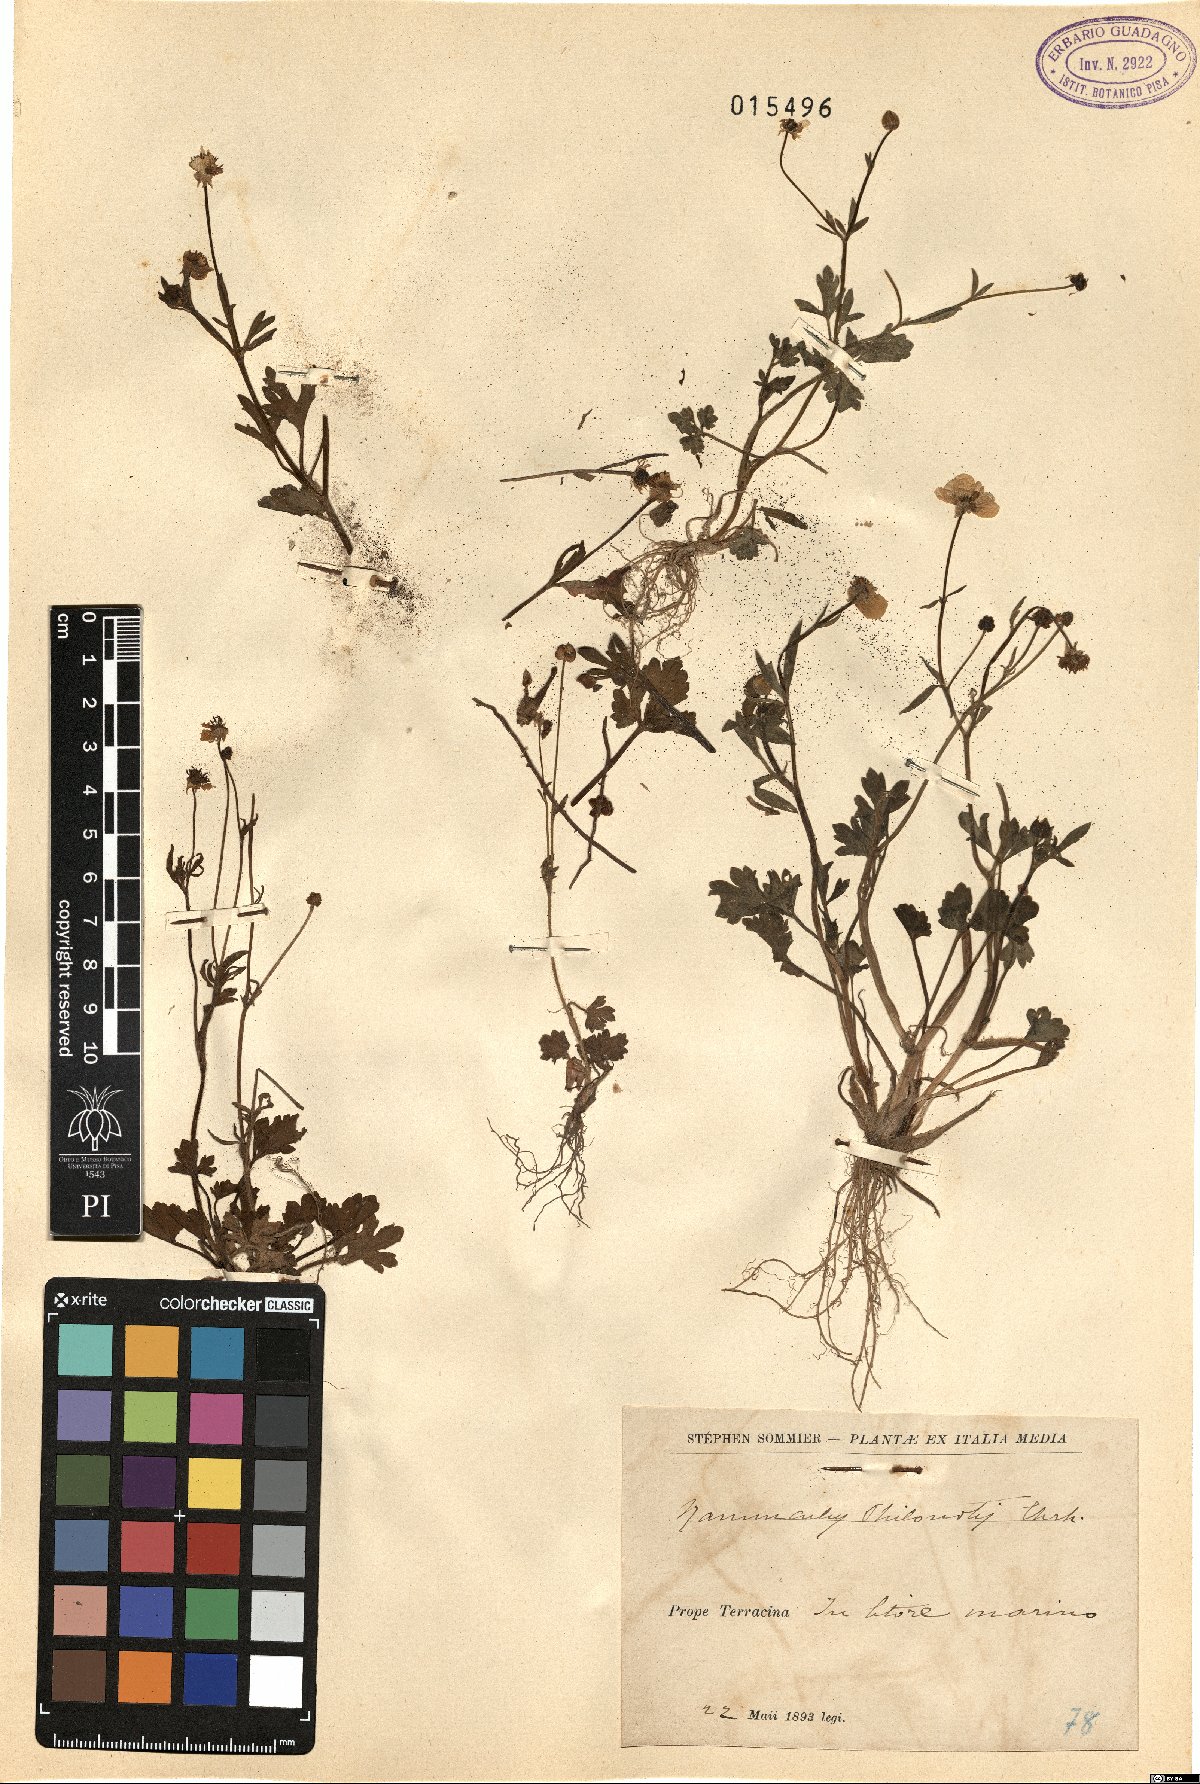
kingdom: Plantae
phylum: Tracheophyta
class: Magnoliopsida
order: Ranunculales
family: Ranunculaceae
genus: Ranunculus
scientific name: Ranunculus sardous
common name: Hairy buttercup
